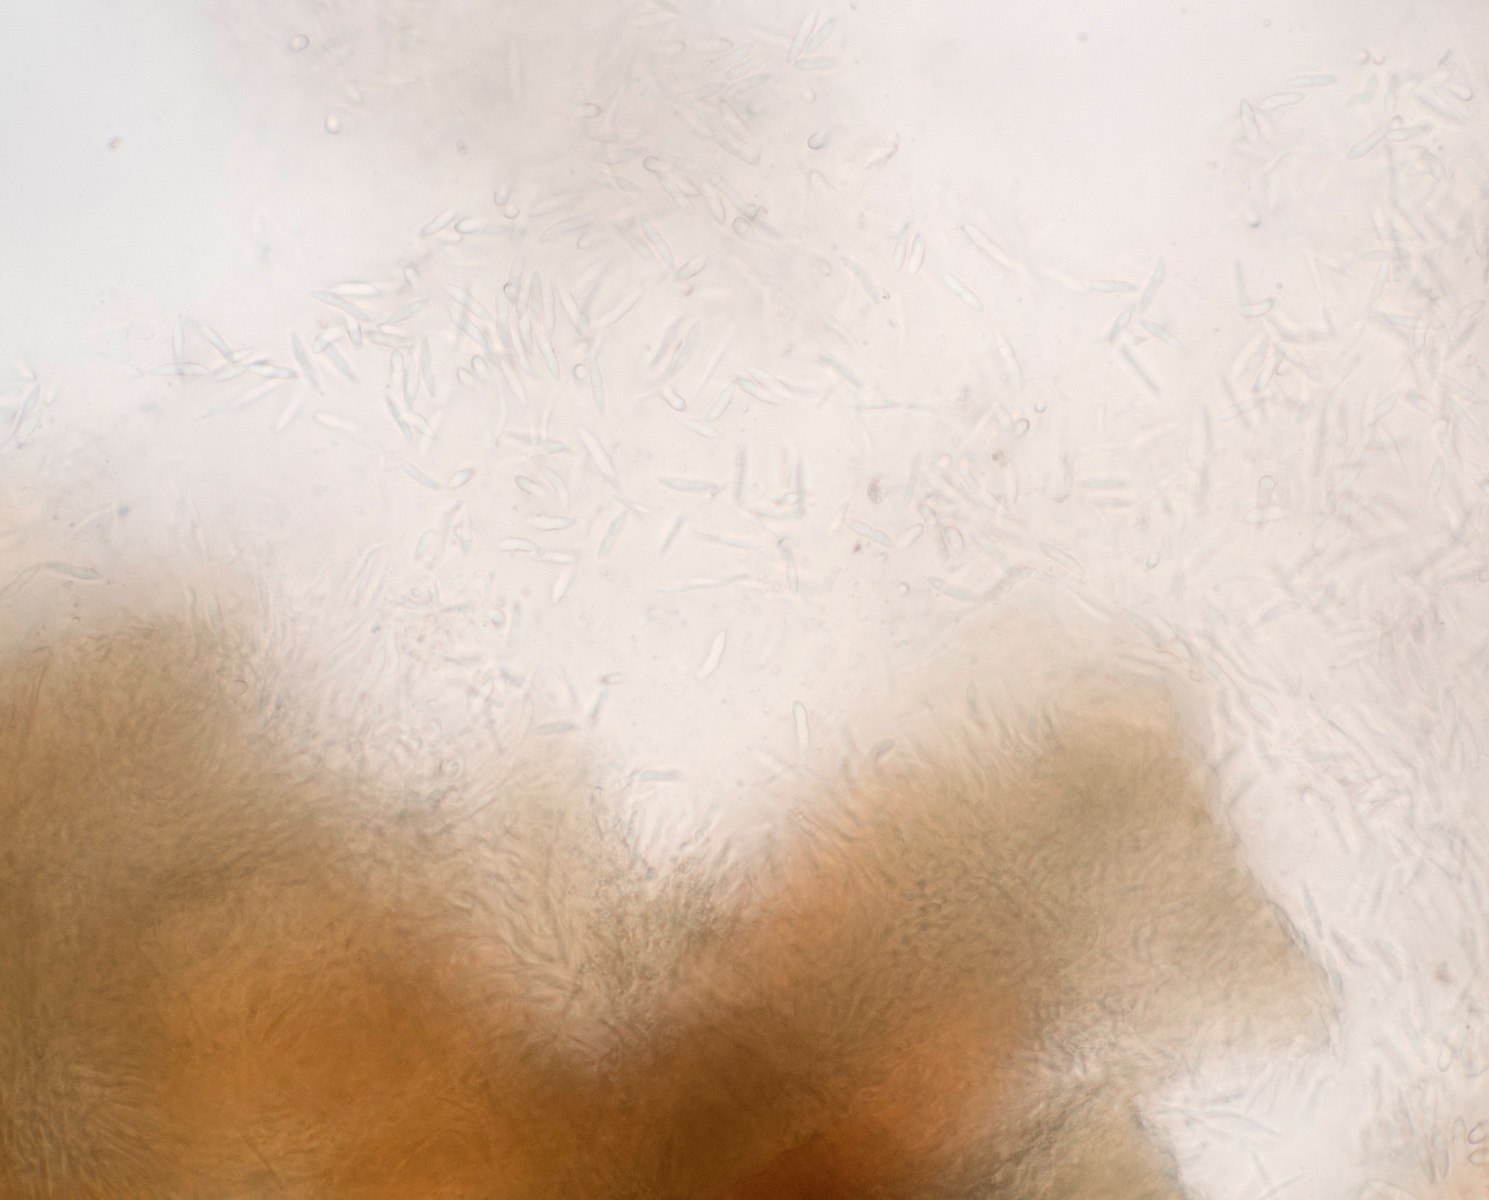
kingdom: Fungi
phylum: Ascomycota
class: Sordariomycetes
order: Diaporthales
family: Gnomoniaceae
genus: Sirococcus
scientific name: Sirococcus conigenus
